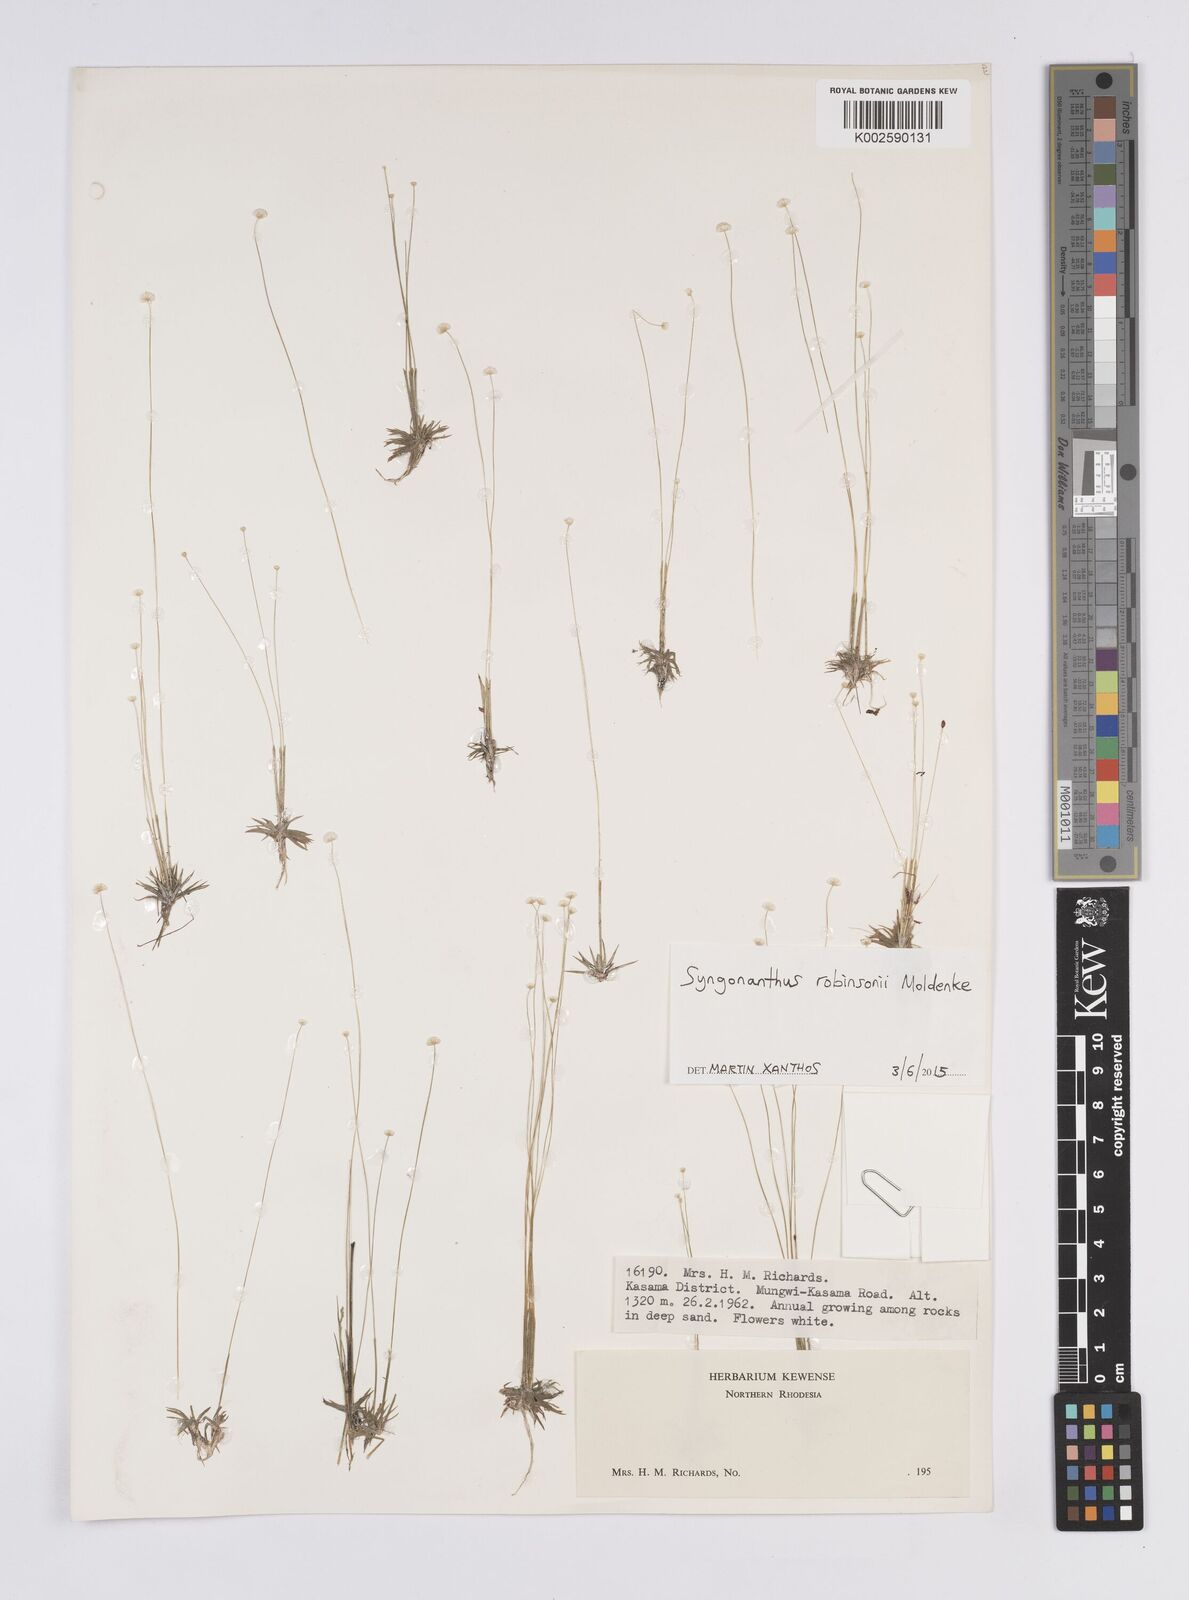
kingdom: Plantae
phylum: Tracheophyta
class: Liliopsida
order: Poales
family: Eriocaulaceae
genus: Syngonanthus
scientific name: Syngonanthus robinsonii
